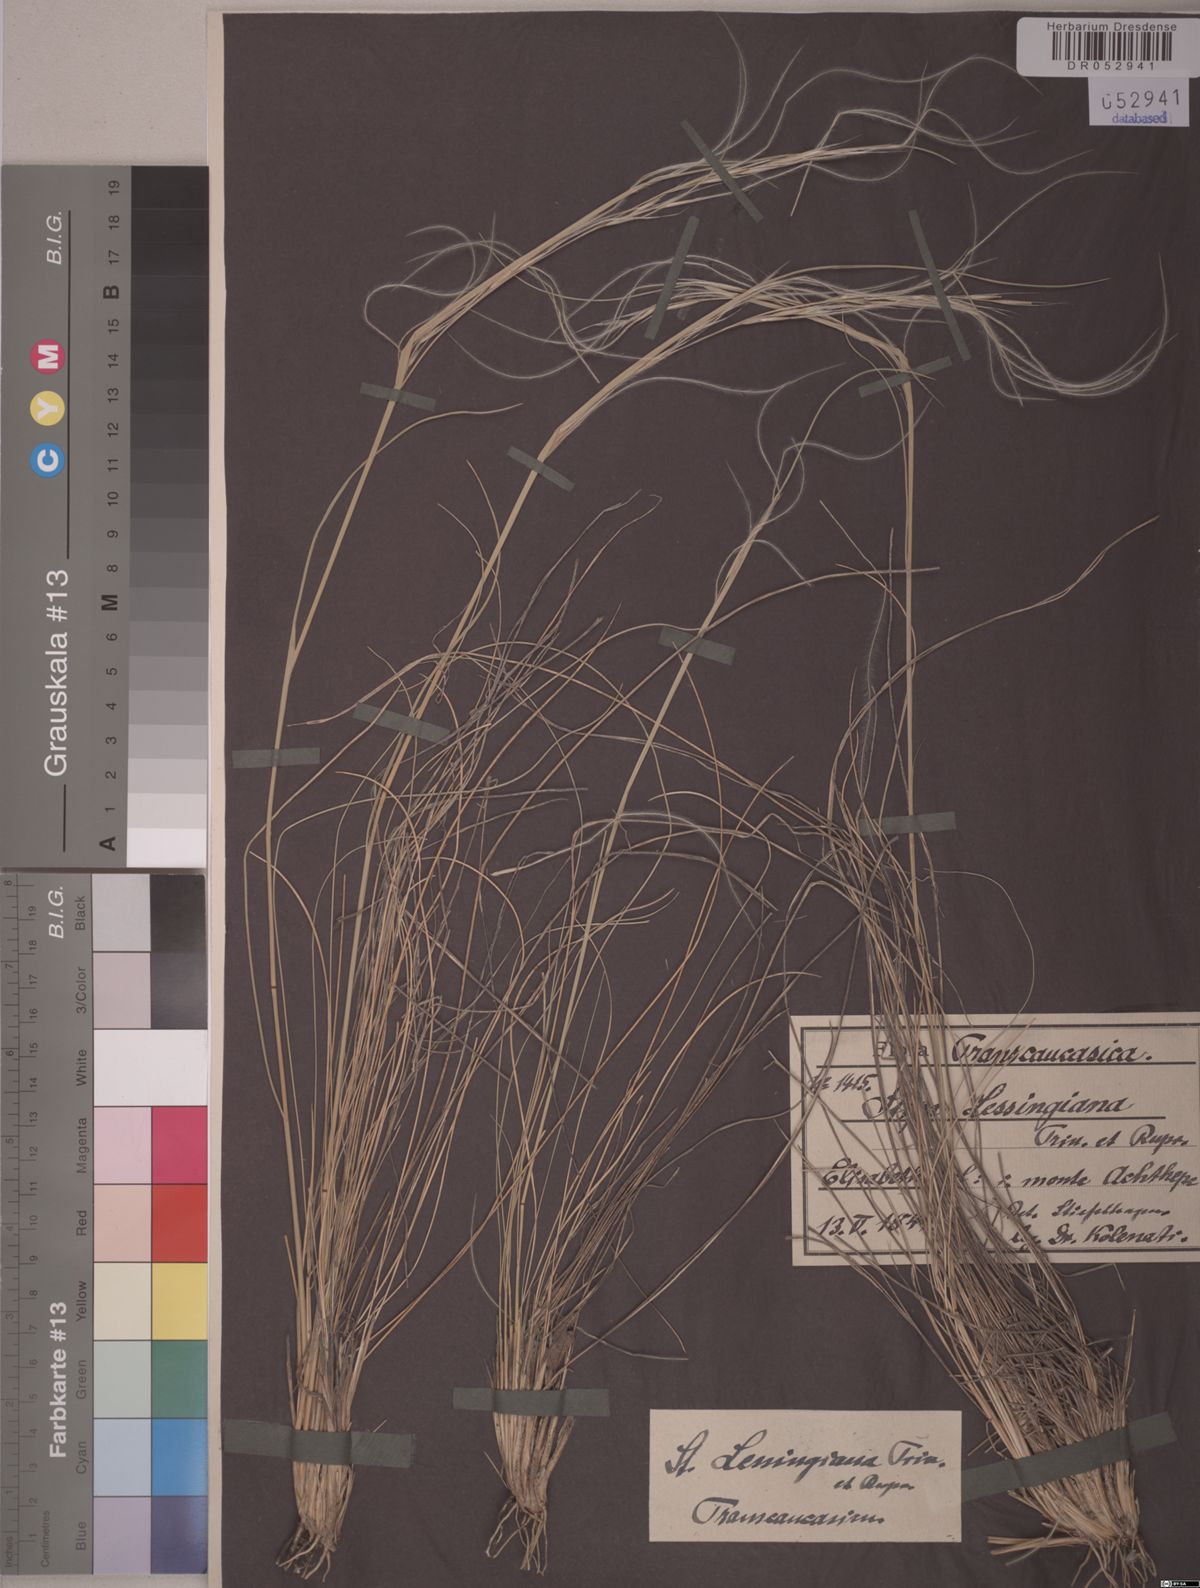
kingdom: Plantae
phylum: Tracheophyta
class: Liliopsida
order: Poales
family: Poaceae
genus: Stipa
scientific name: Stipa lessingiana
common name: Needle grass
